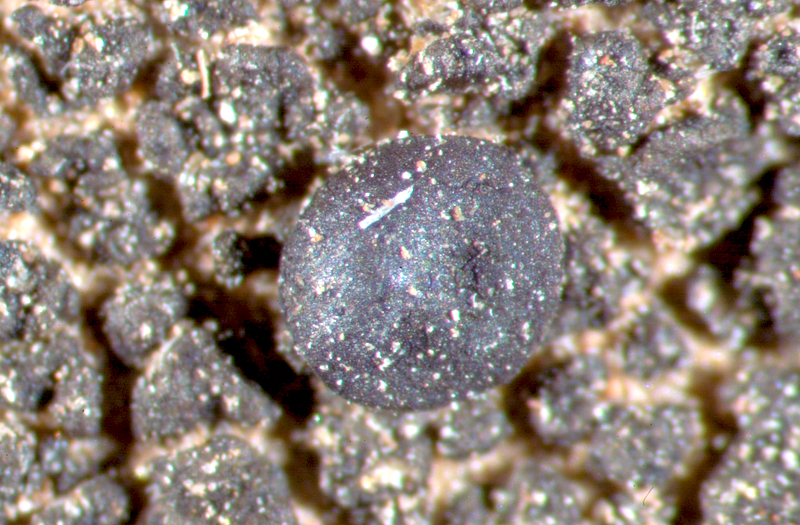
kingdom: Fungi
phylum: Ascomycota
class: Lecanoromycetes
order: Lecanorales
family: Parmeliaceae
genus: Neofuscelia
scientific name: Neofuscelia
